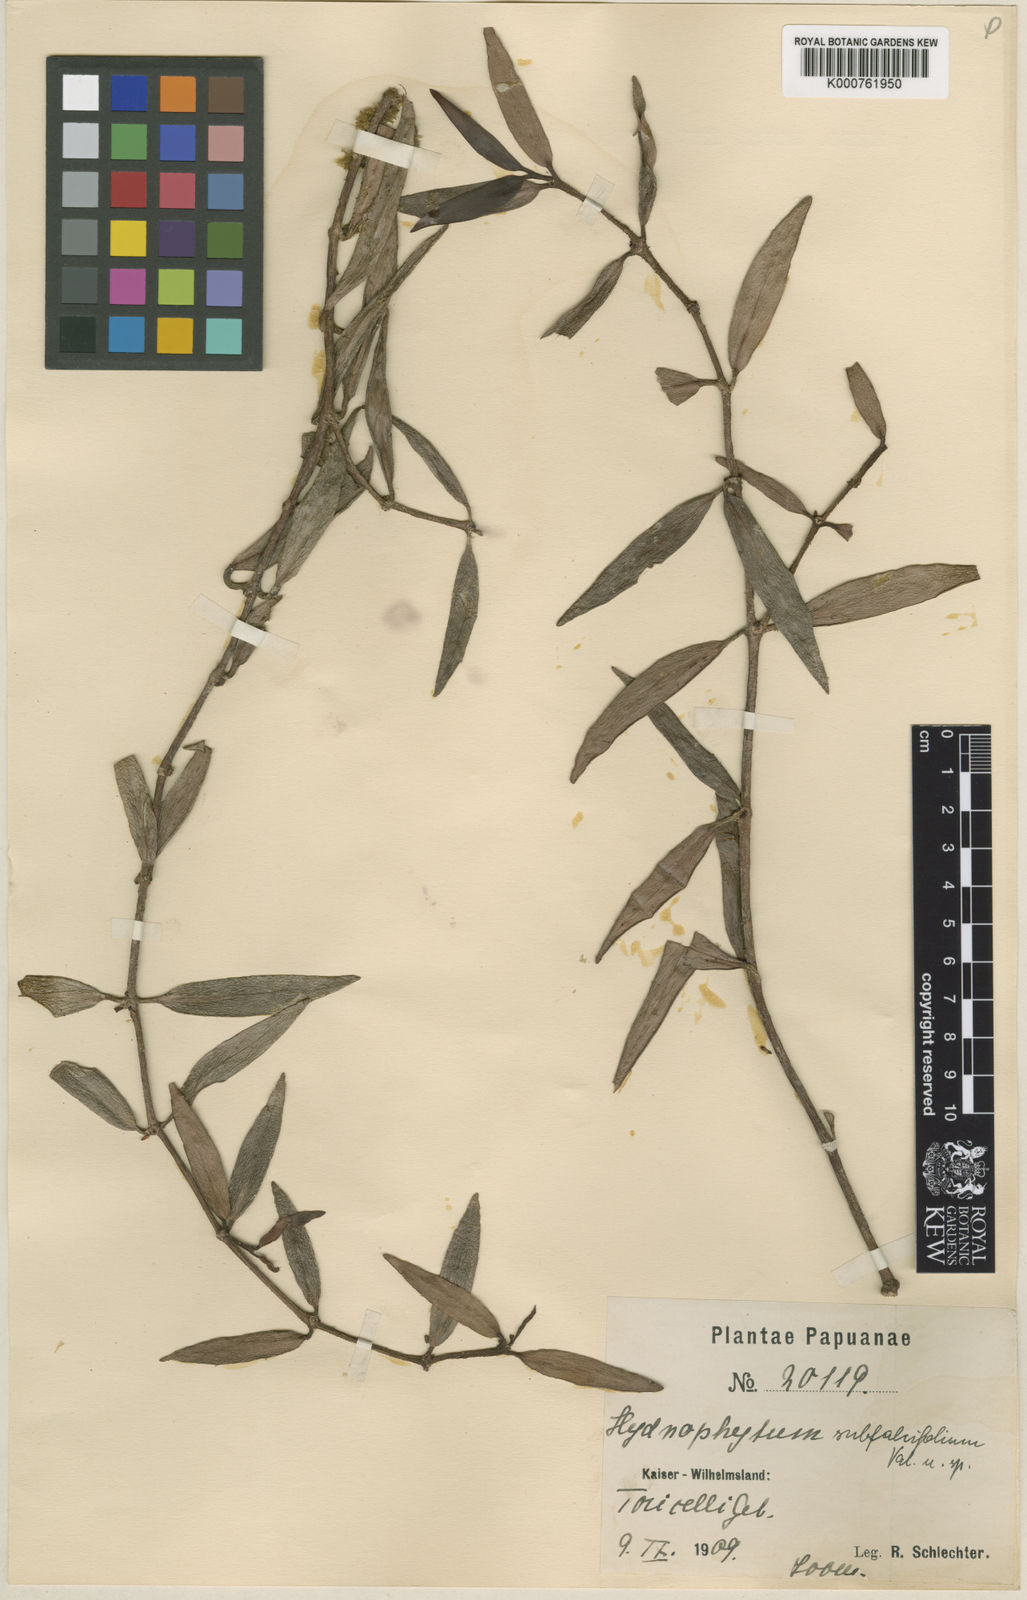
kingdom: Plantae
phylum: Tracheophyta
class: Magnoliopsida
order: Gentianales
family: Rubiaceae
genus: Hydnophytum
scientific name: Hydnophytum moseleyanum
